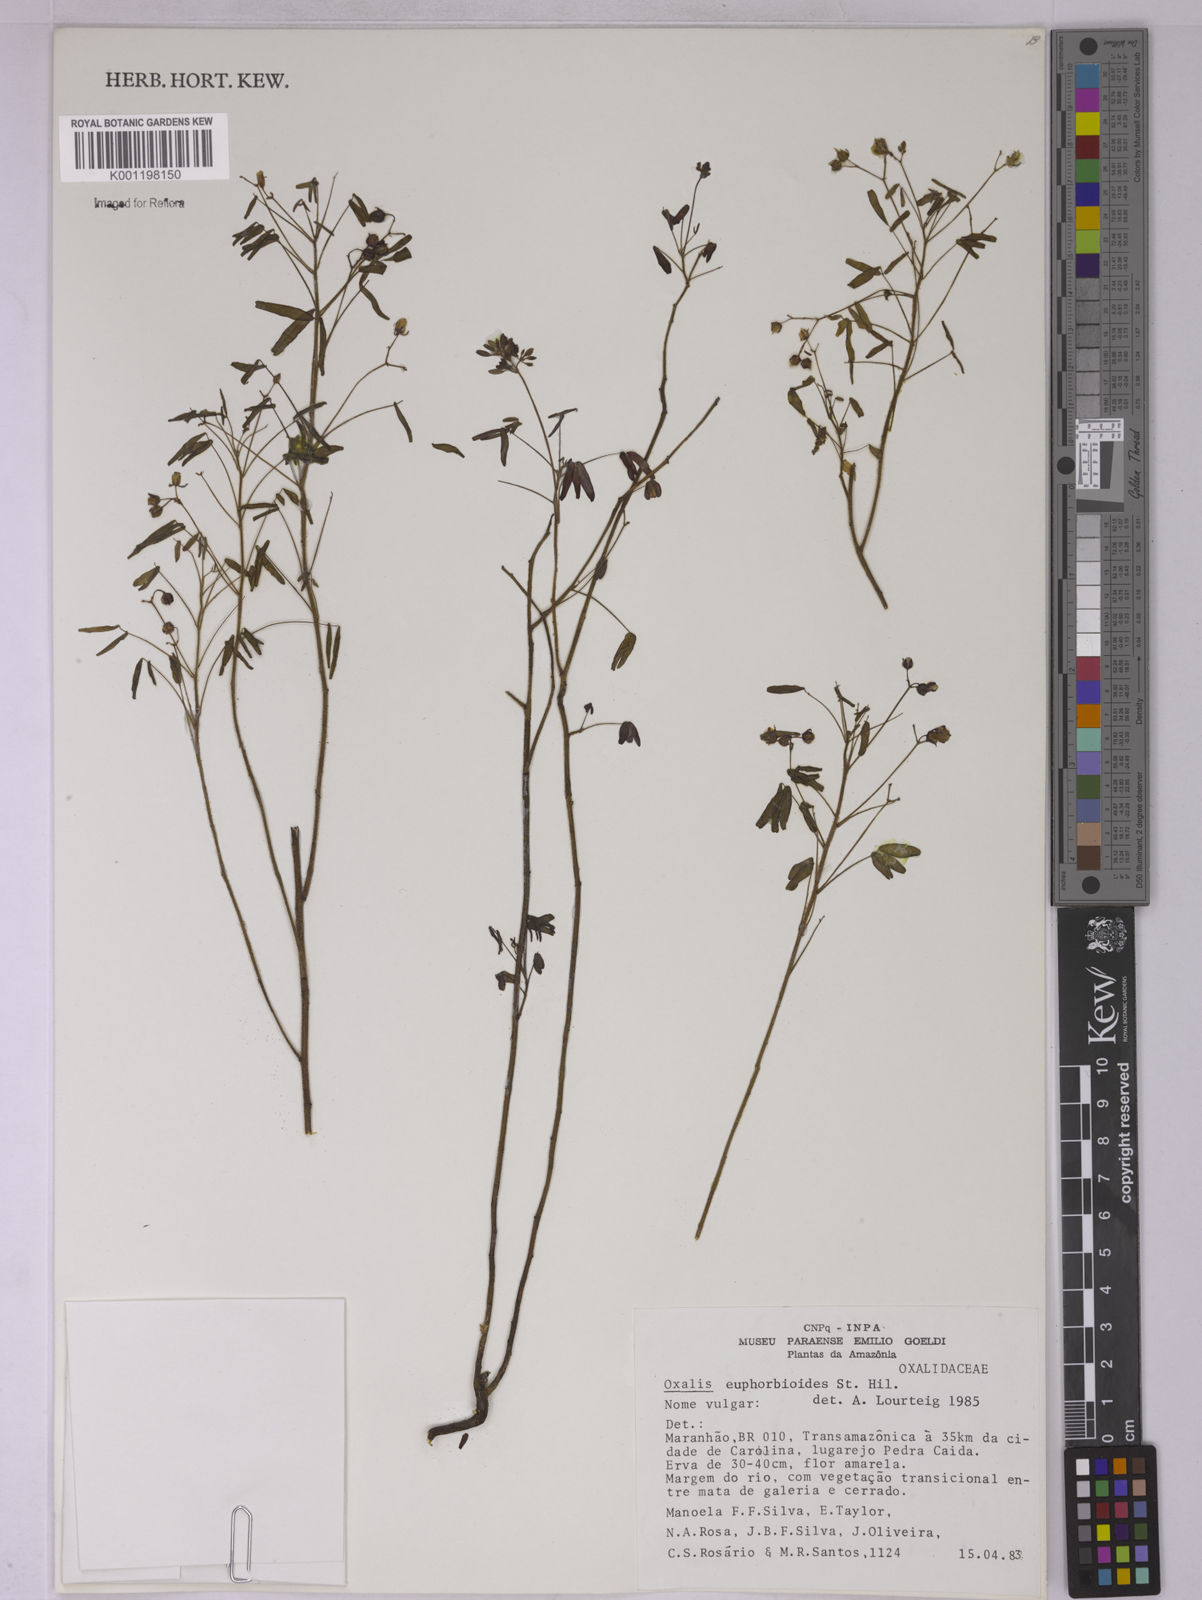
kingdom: Plantae
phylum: Tracheophyta
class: Magnoliopsida
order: Oxalidales
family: Oxalidaceae
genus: Oxalis
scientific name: Oxalis divaricata
